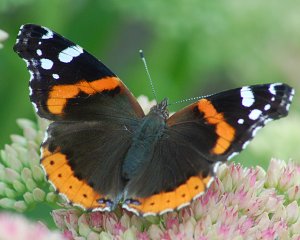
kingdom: Animalia
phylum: Arthropoda
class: Insecta
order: Lepidoptera
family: Nymphalidae
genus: Vanessa
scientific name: Vanessa atalanta
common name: Red Admiral
